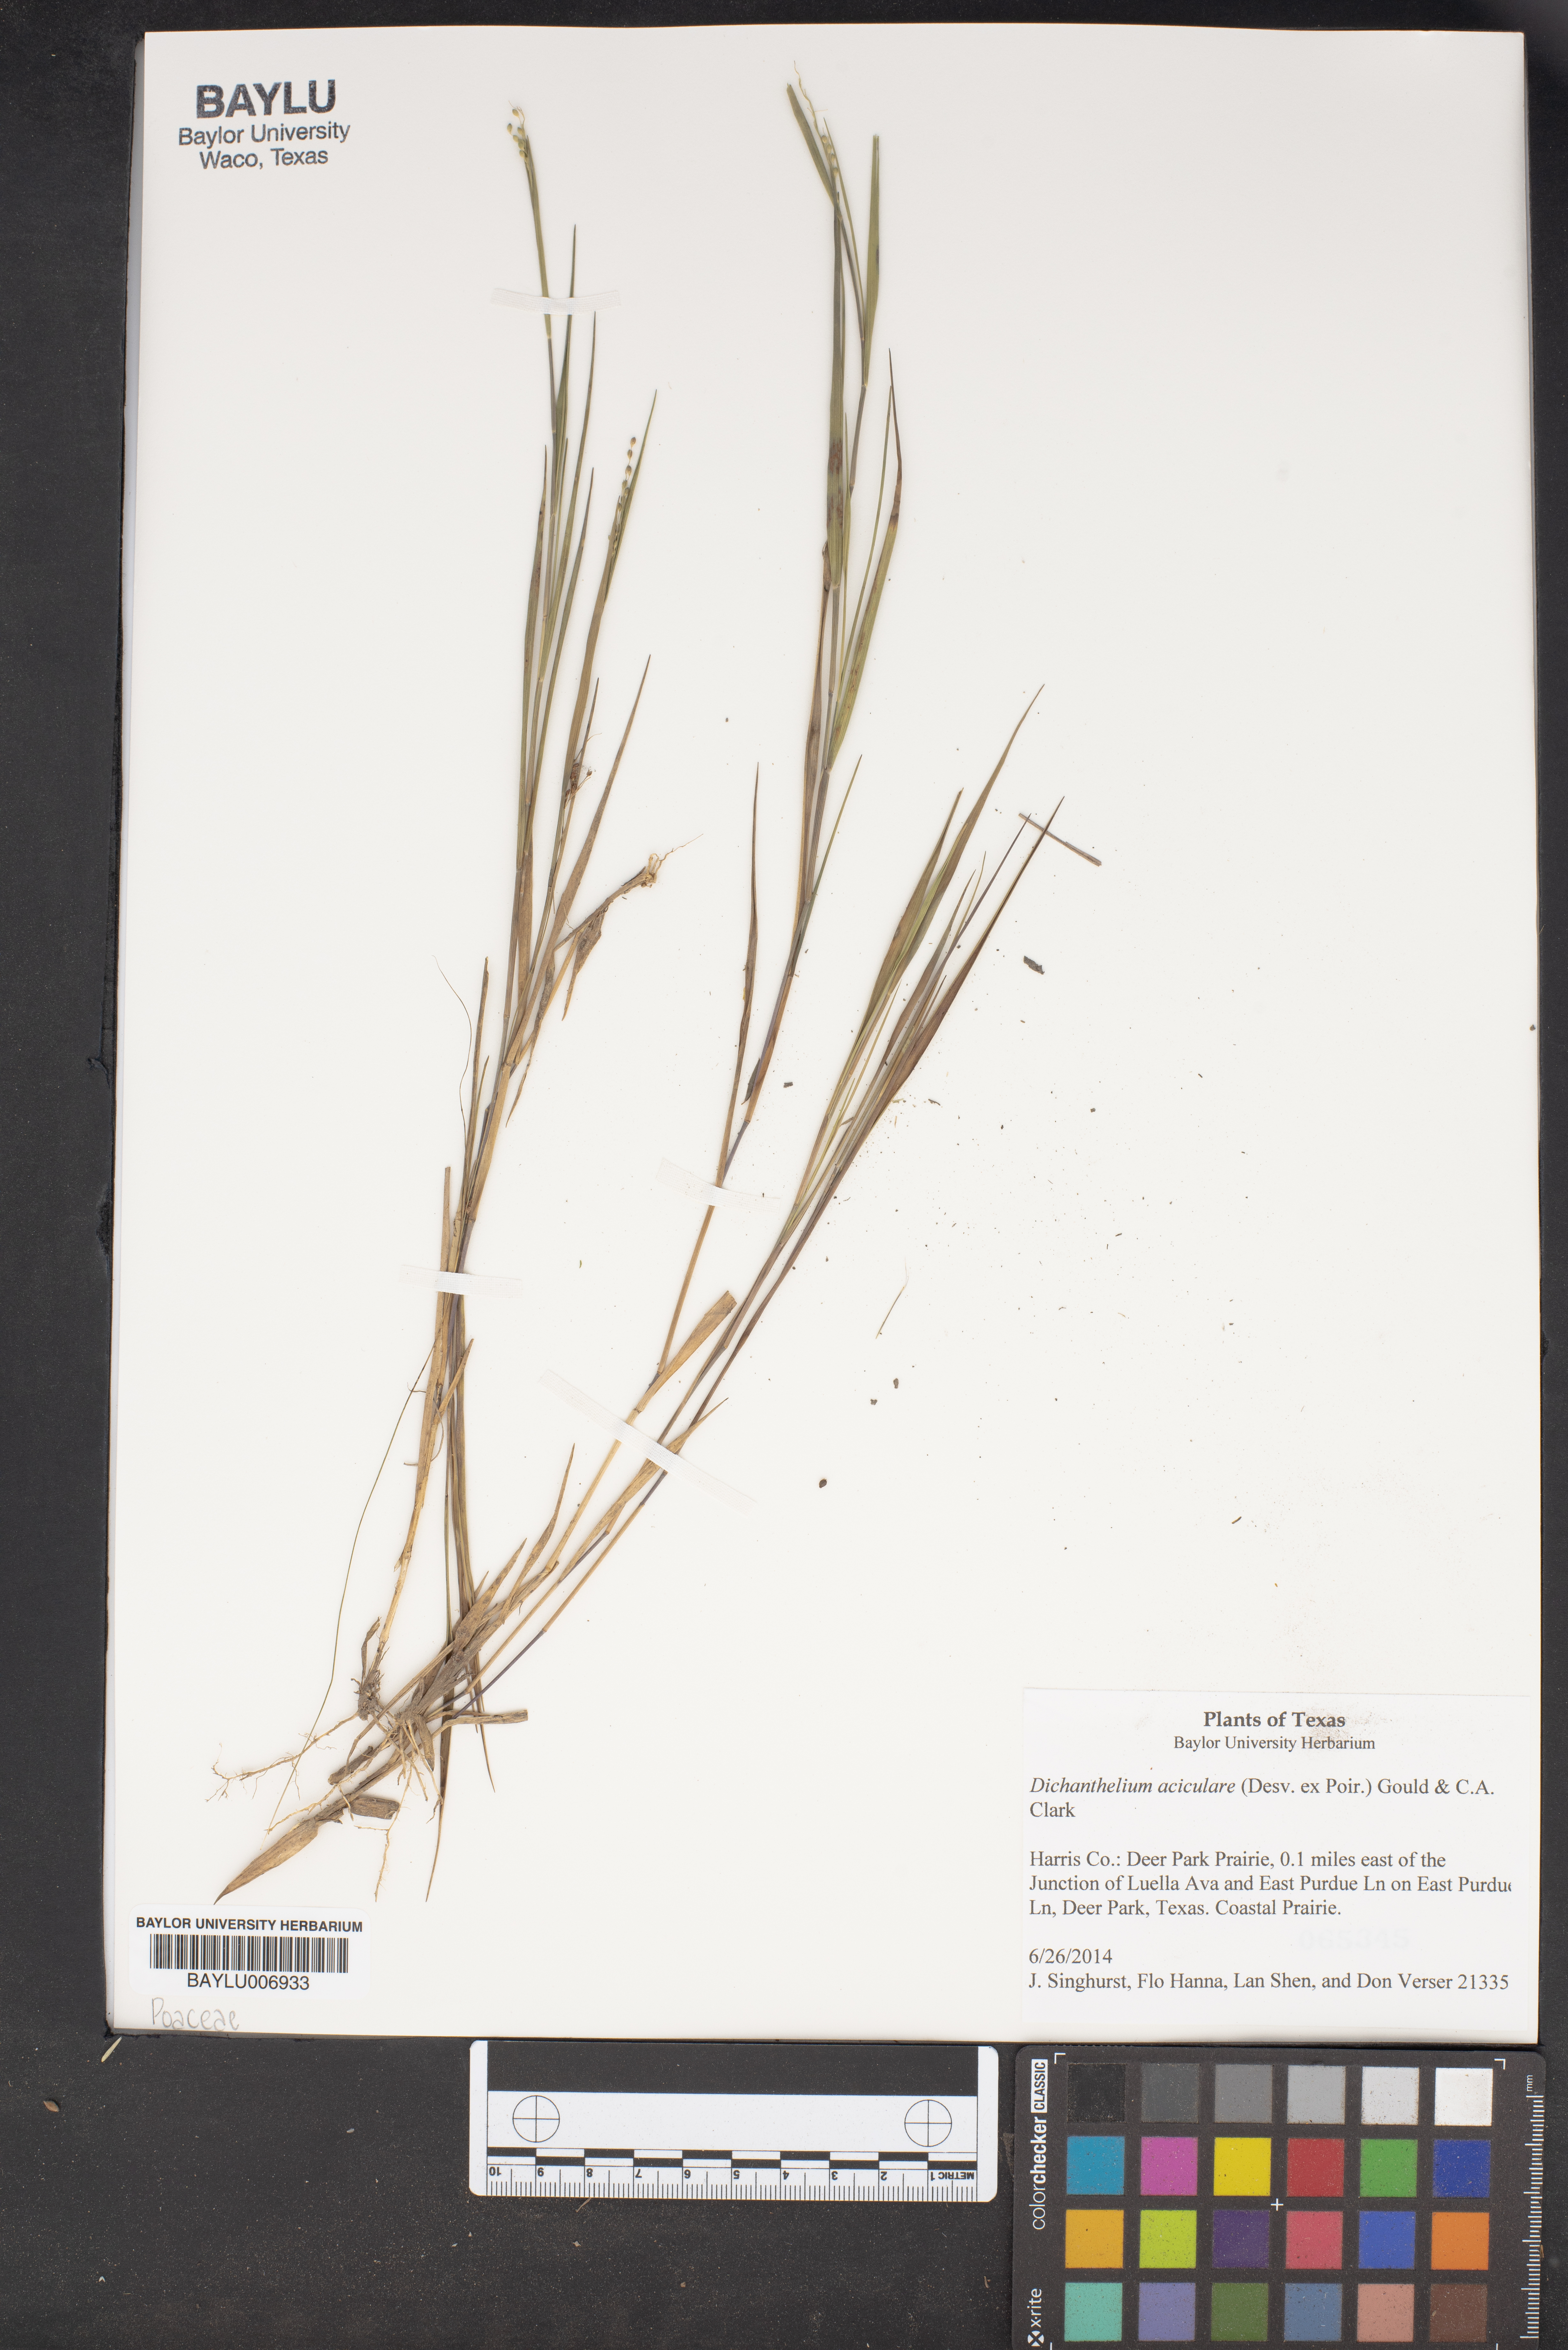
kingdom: Plantae
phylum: Tracheophyta
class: Liliopsida
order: Poales
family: Poaceae
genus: Dichanthelium
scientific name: Dichanthelium aciculare
